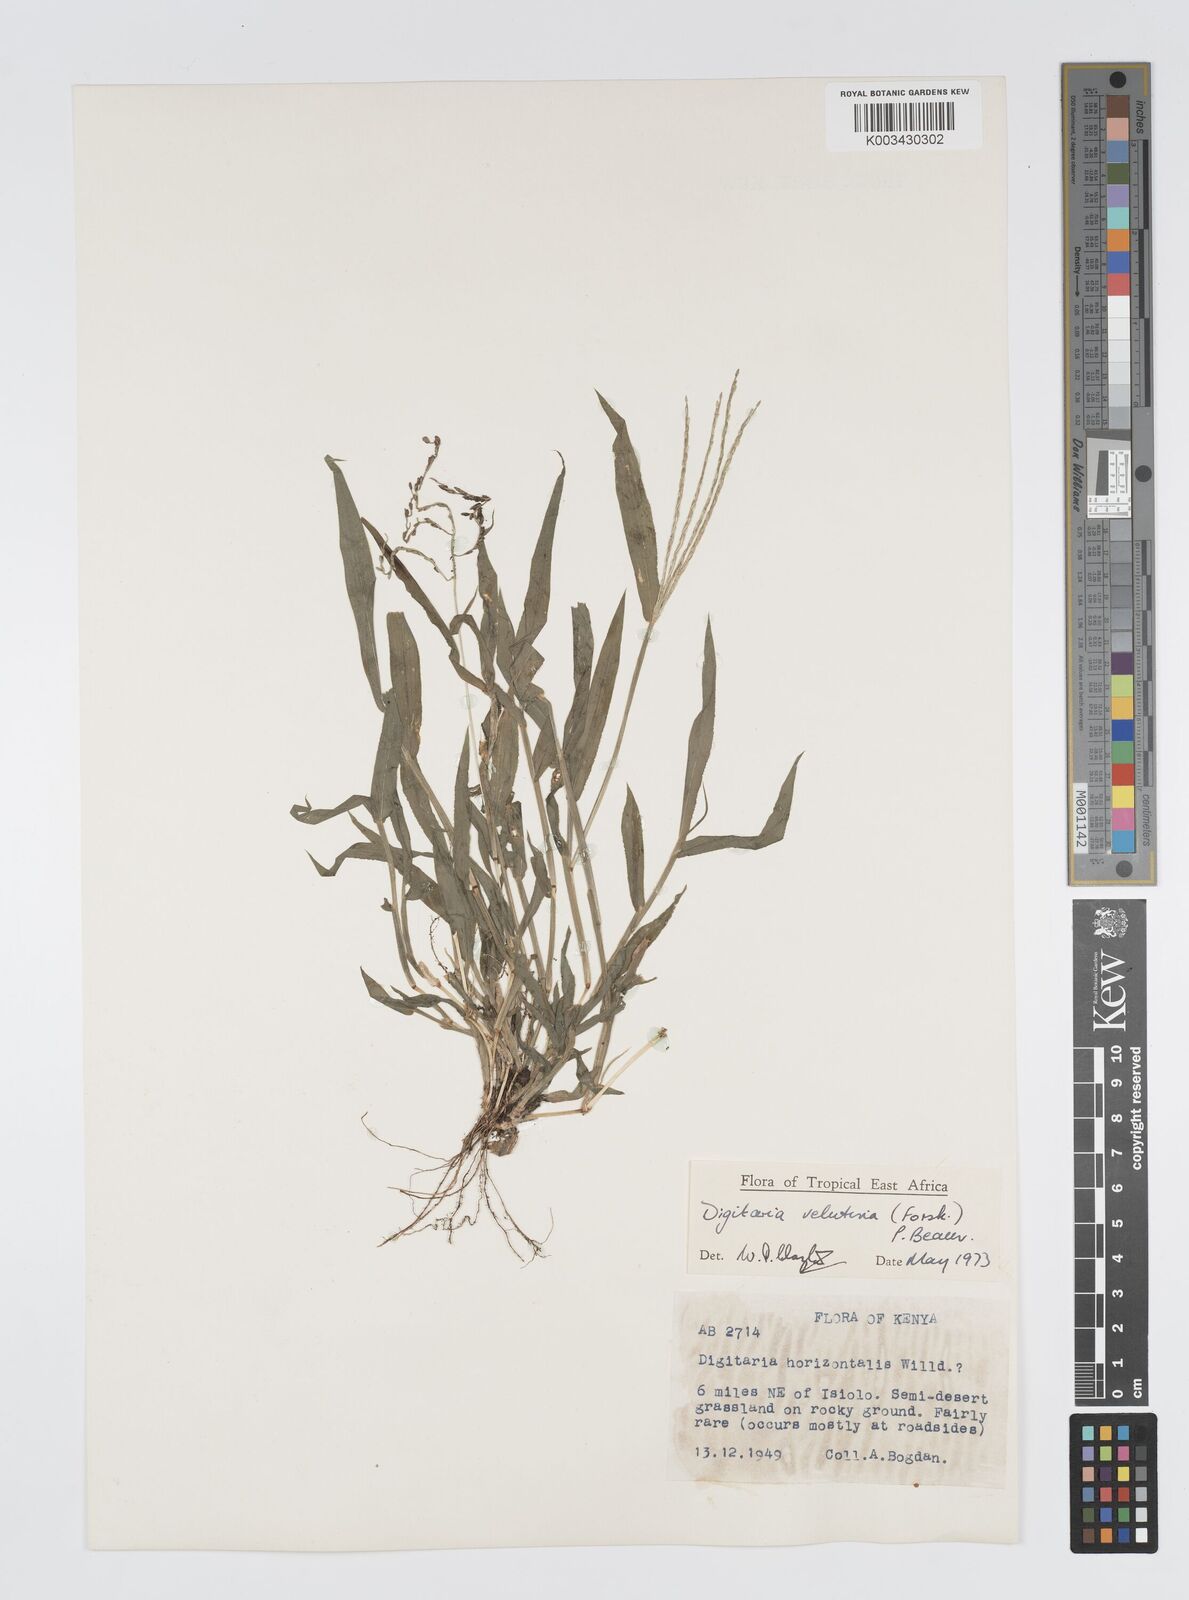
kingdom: Plantae
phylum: Tracheophyta
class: Liliopsida
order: Poales
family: Poaceae
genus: Digitaria
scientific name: Digitaria velutina
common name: Long-plume finger grass
